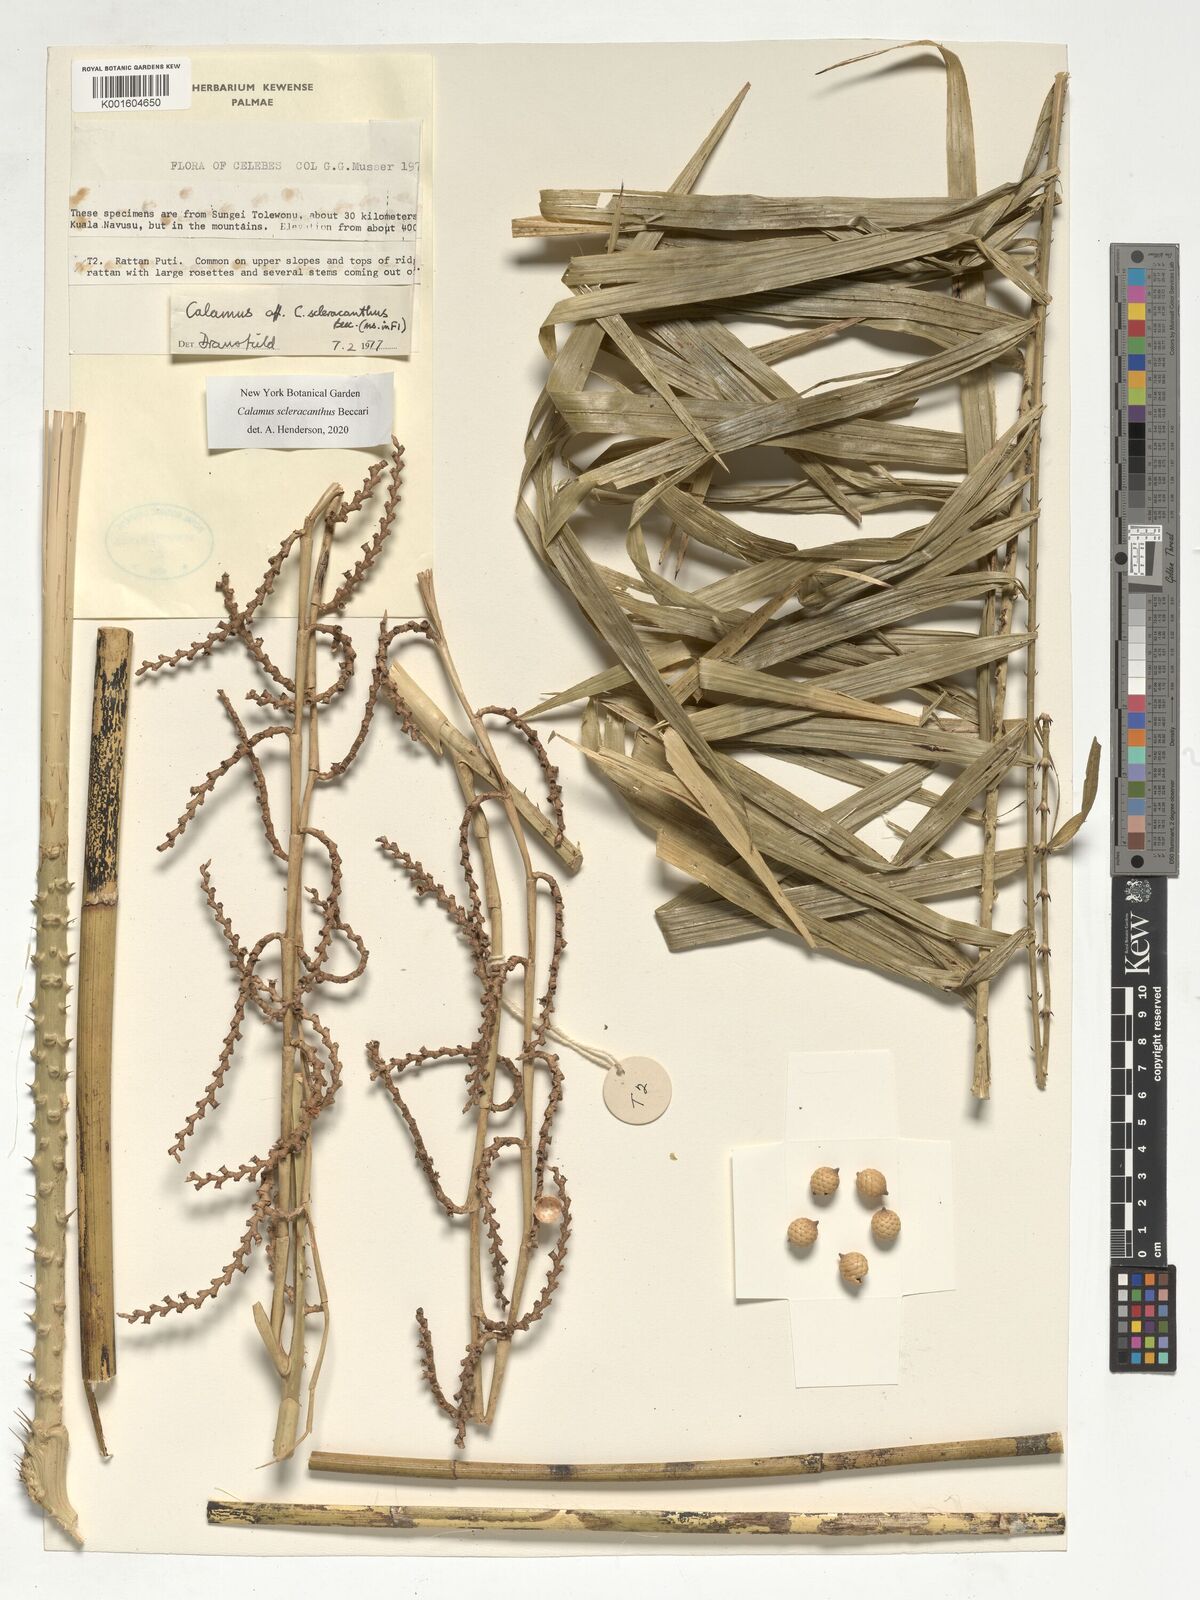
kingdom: Plantae
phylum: Tracheophyta
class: Liliopsida
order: Arecales
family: Arecaceae
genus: Calamus
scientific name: Calamus scleracanthus
